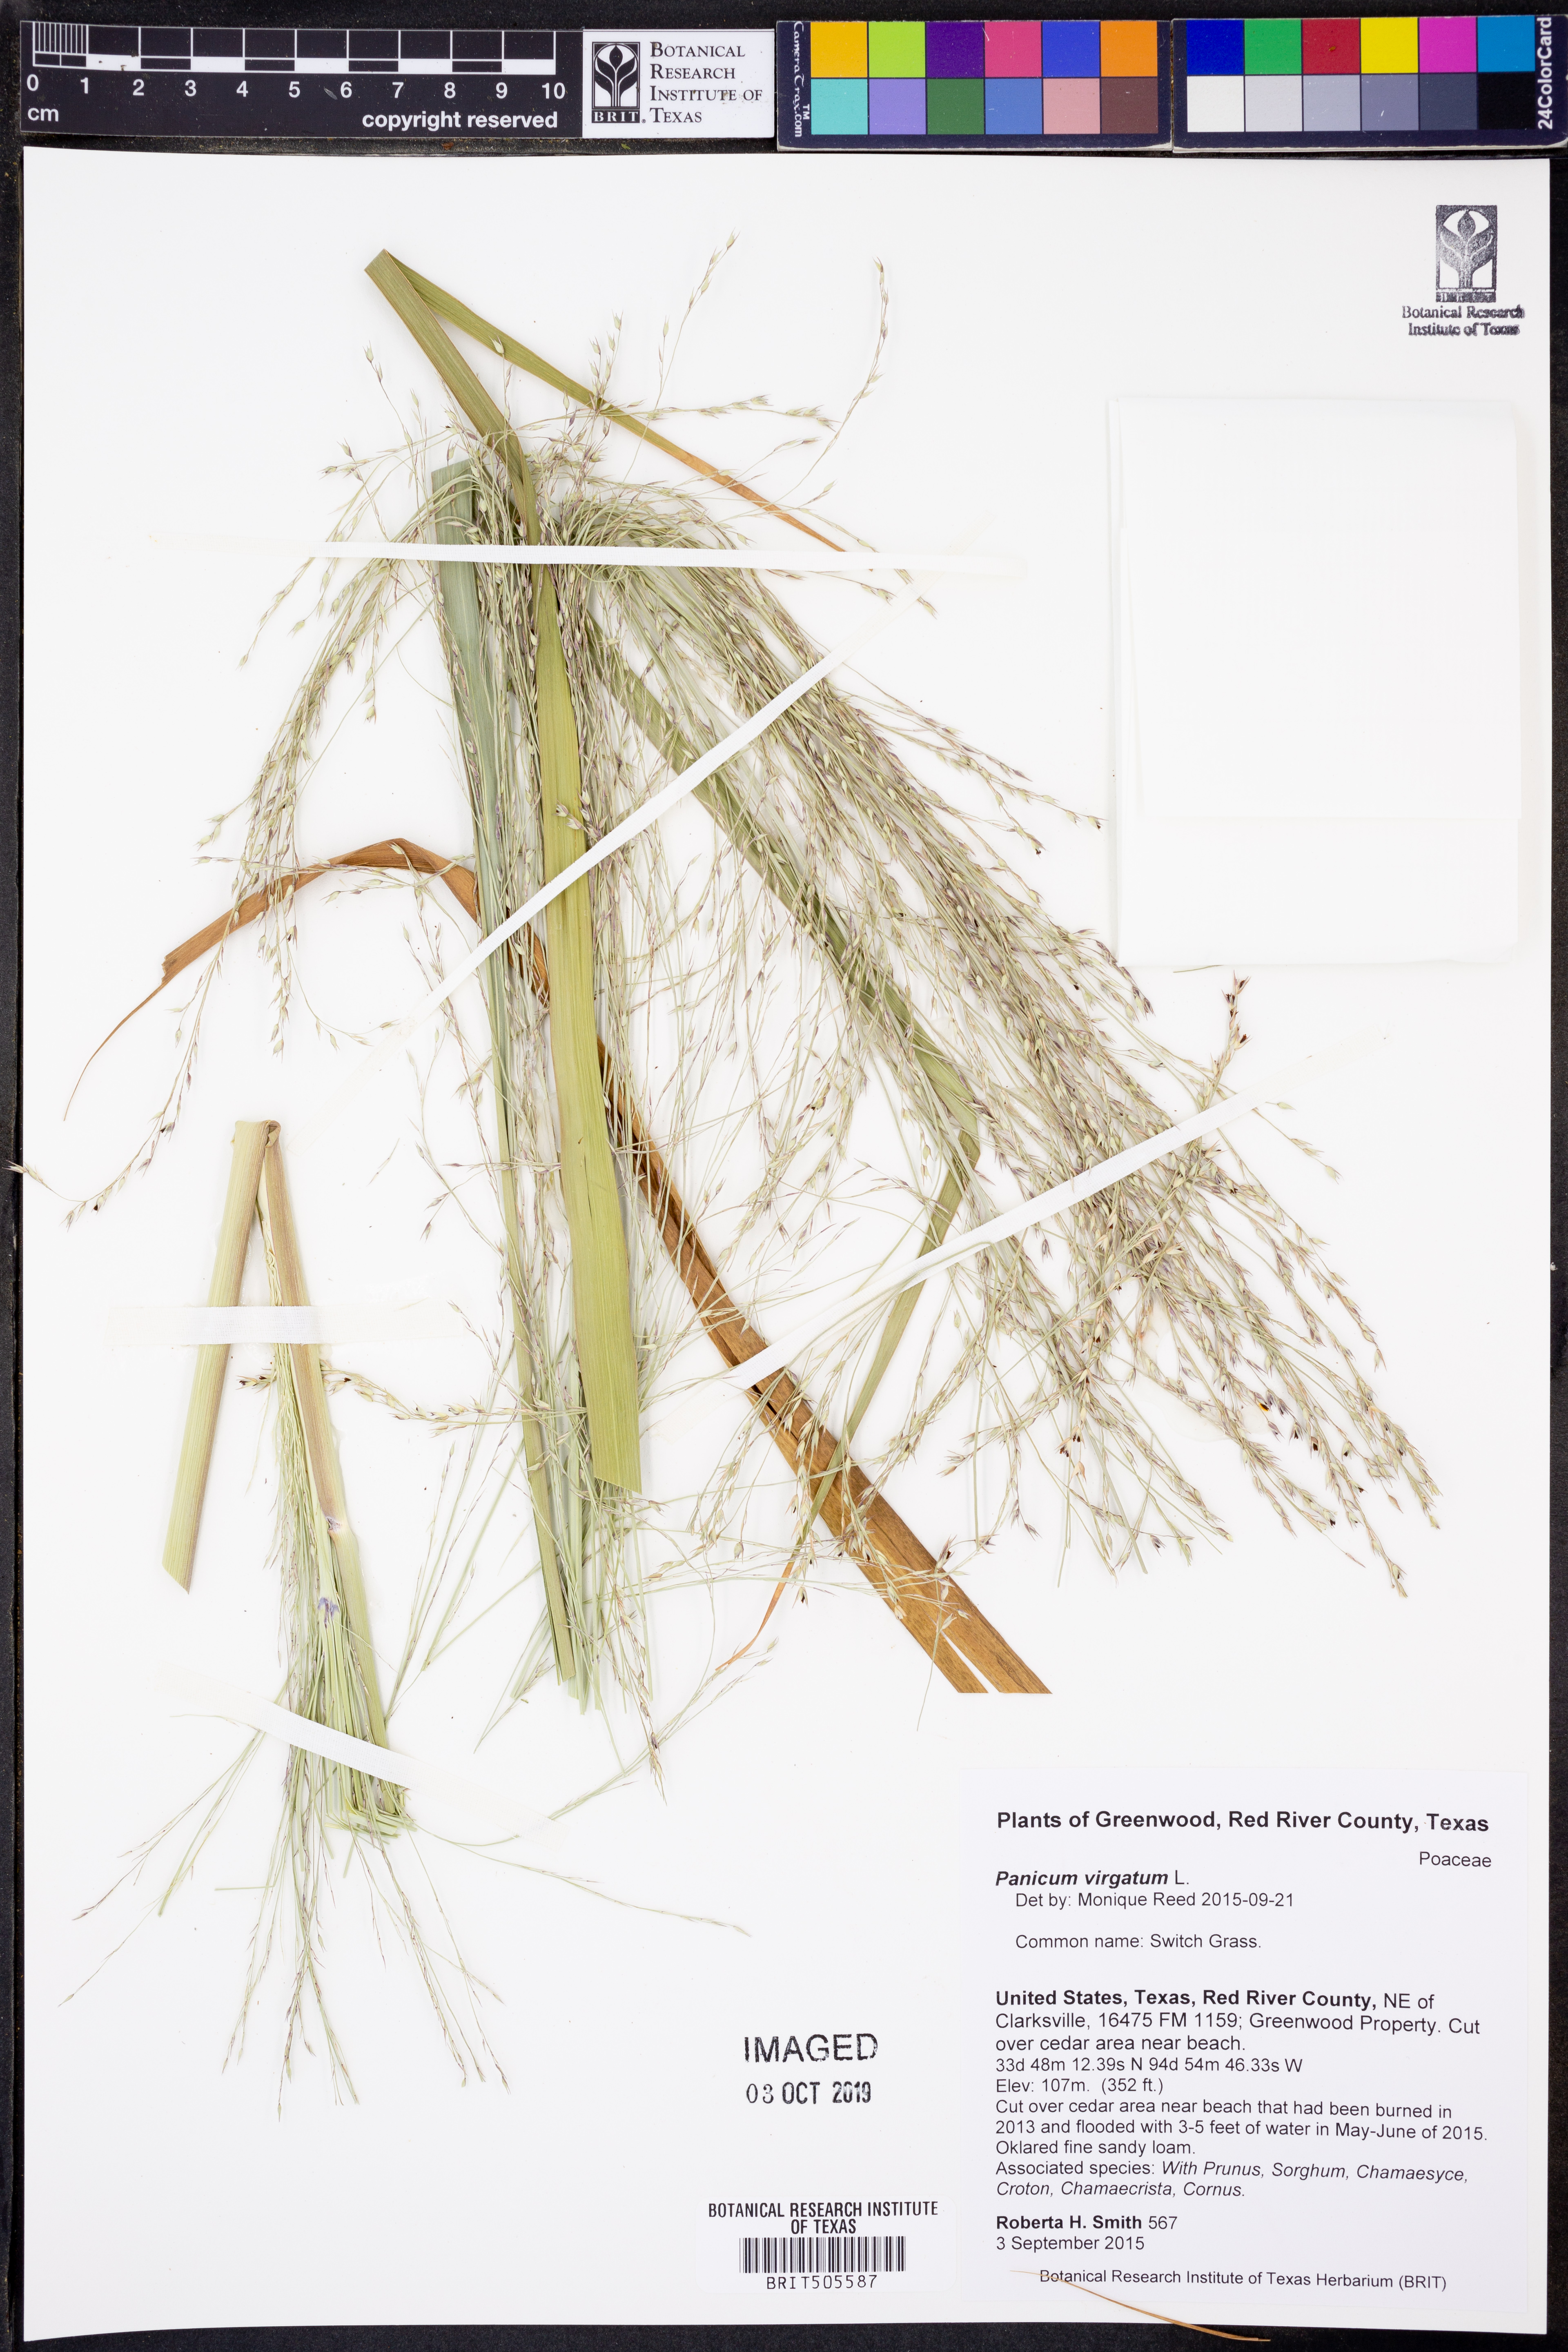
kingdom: Plantae
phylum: Tracheophyta
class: Liliopsida
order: Poales
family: Poaceae
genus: Panicum
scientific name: Panicum virgatum
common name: Switchgrass
